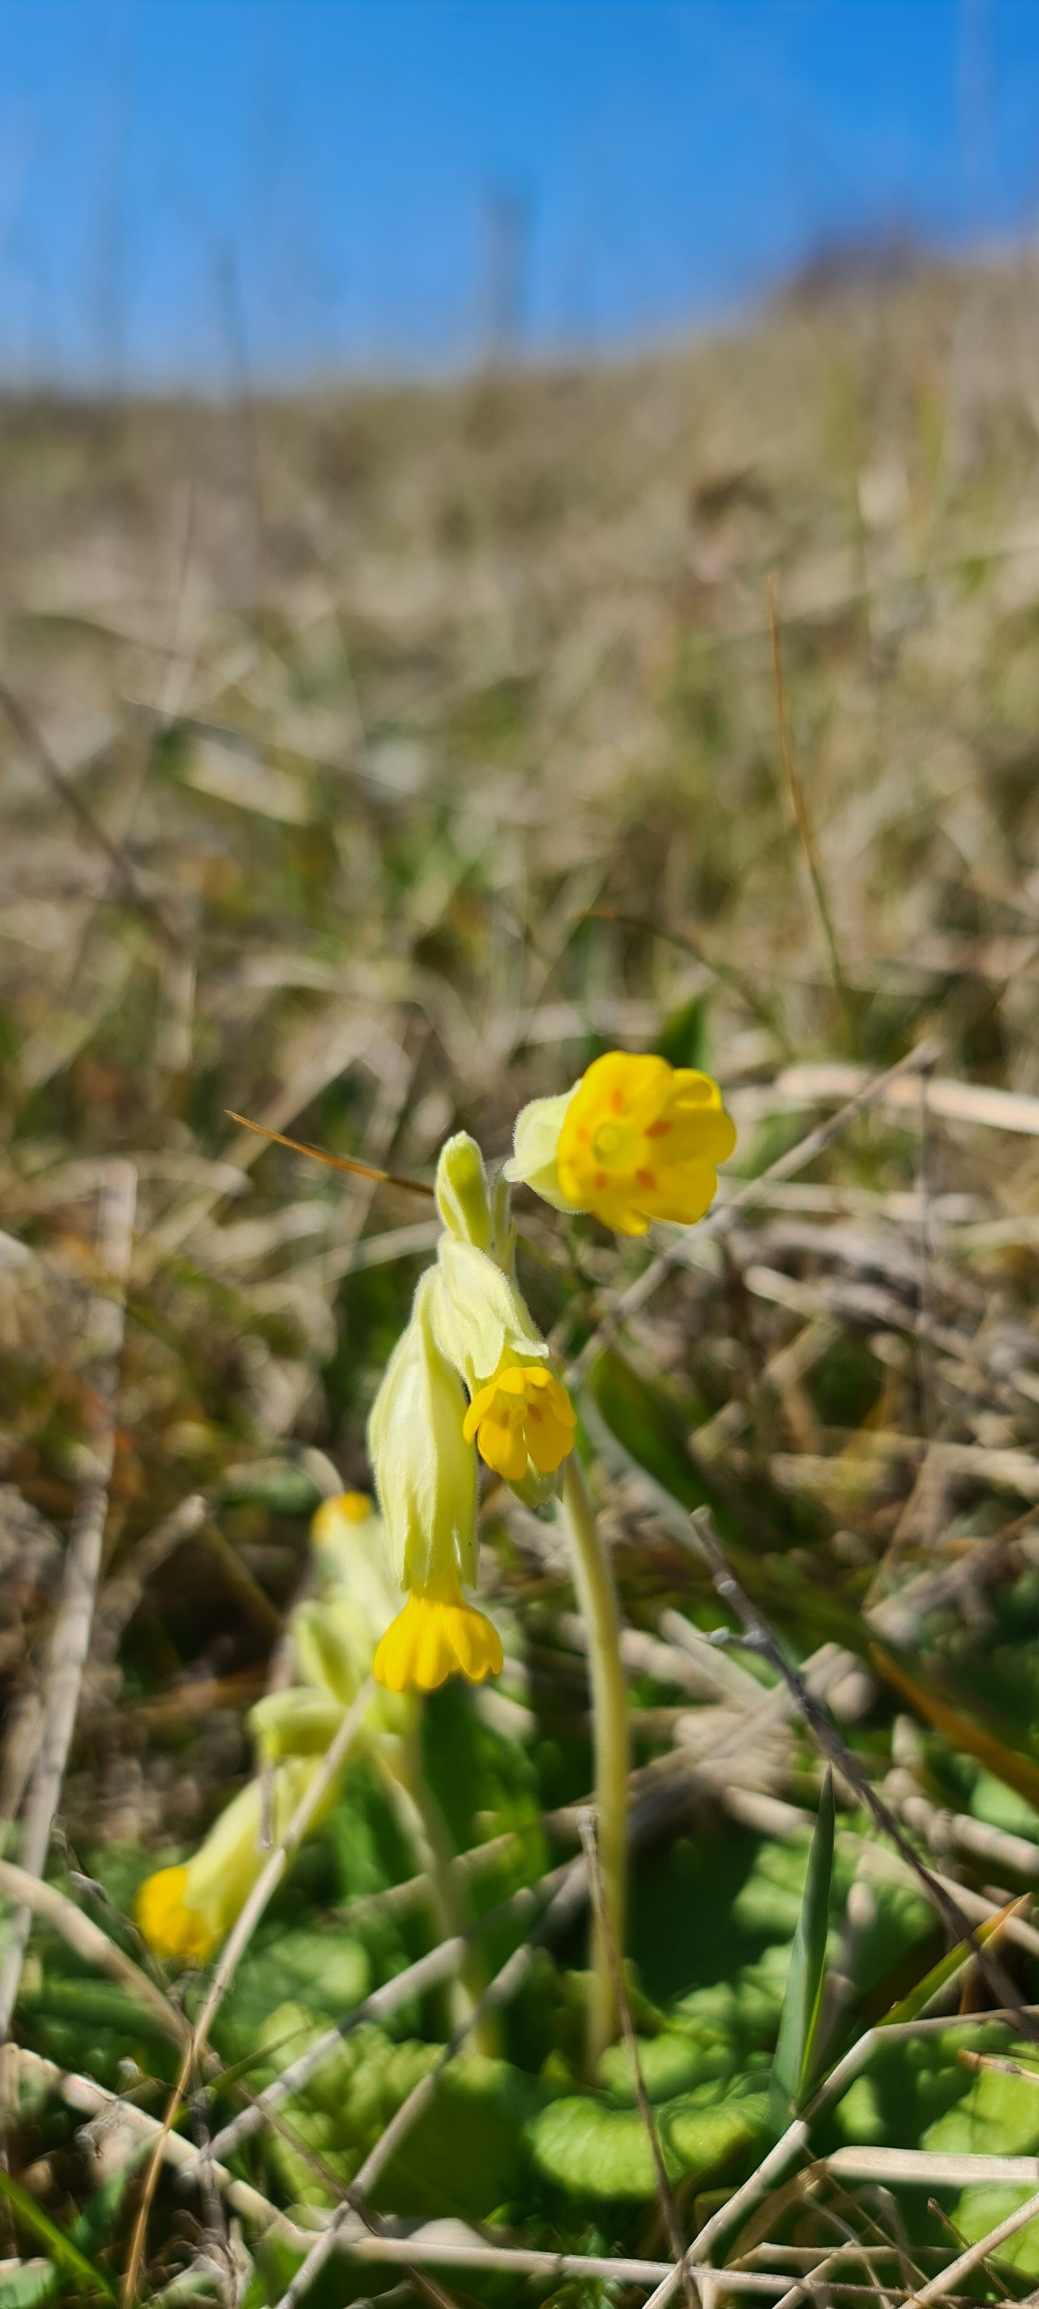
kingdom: Plantae
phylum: Tracheophyta
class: Magnoliopsida
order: Ericales
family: Primulaceae
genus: Primula
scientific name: Primula veris
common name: Hulkravet kodriver
